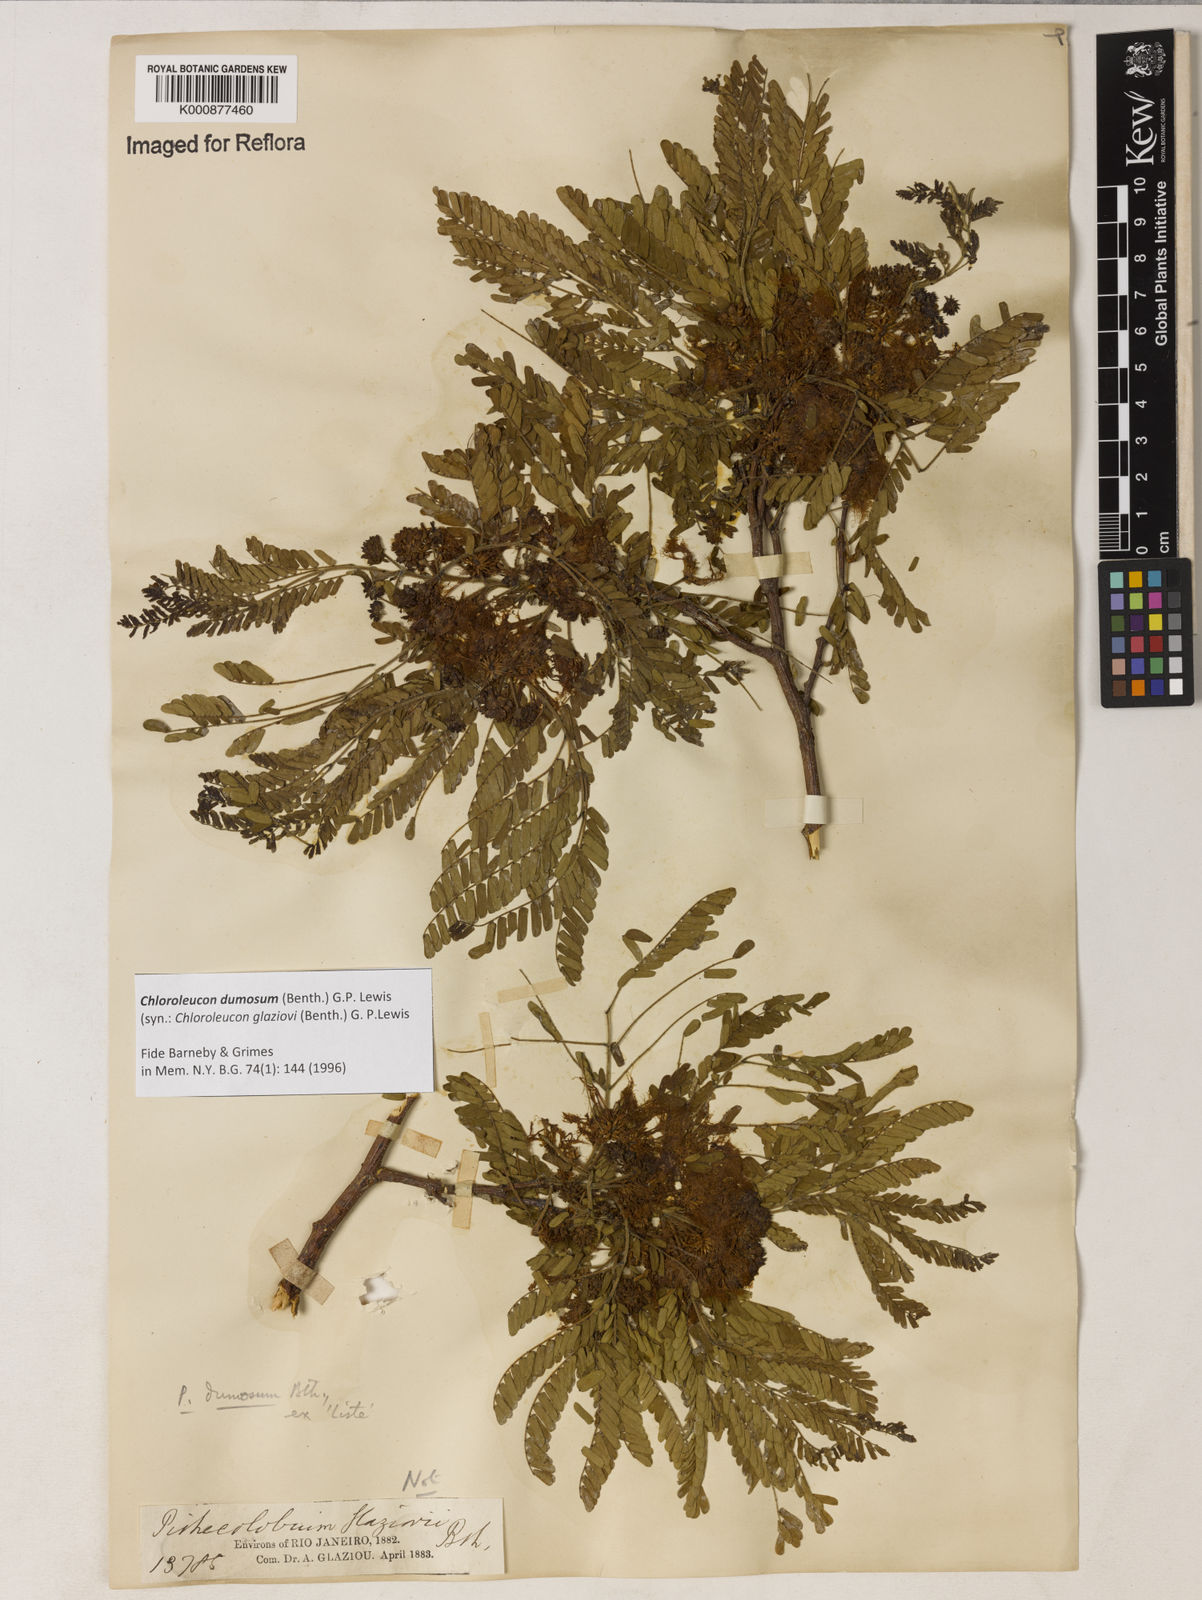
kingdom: Plantae
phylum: Tracheophyta
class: Magnoliopsida
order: Fabales
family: Fabaceae
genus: Chloroleucon
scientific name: Chloroleucon dumosum
